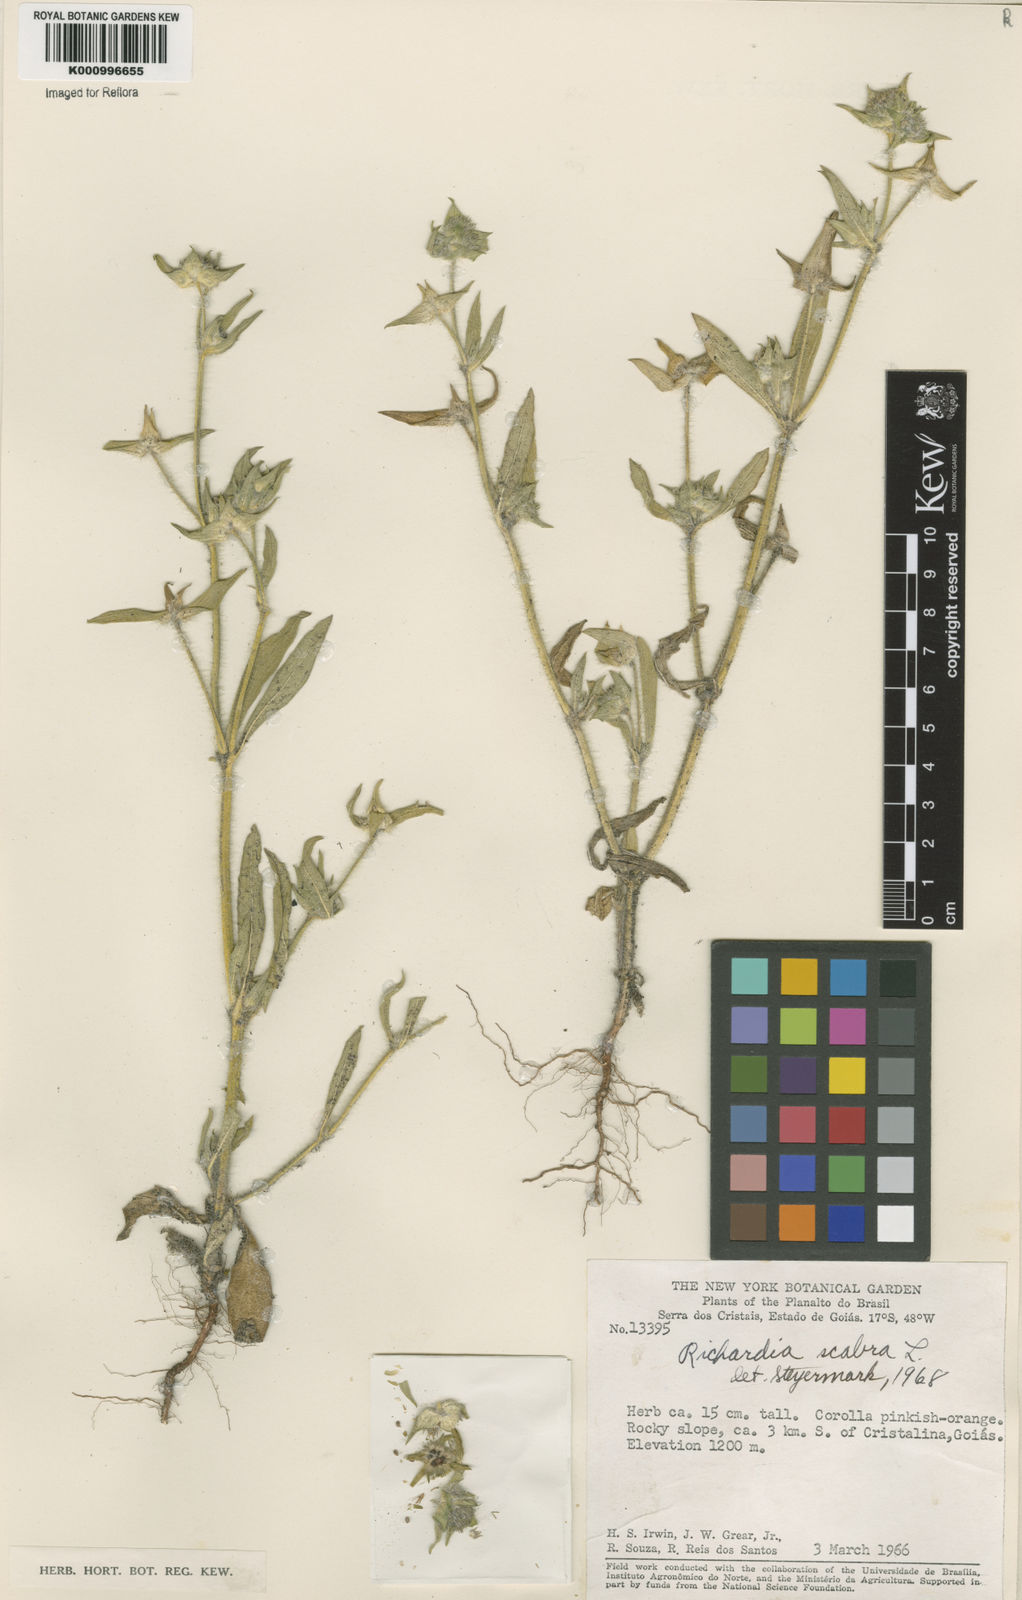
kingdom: Plantae
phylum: Tracheophyta
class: Magnoliopsida
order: Gentianales
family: Rubiaceae
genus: Richardia
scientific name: Richardia scabra
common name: Rough mexican clover
